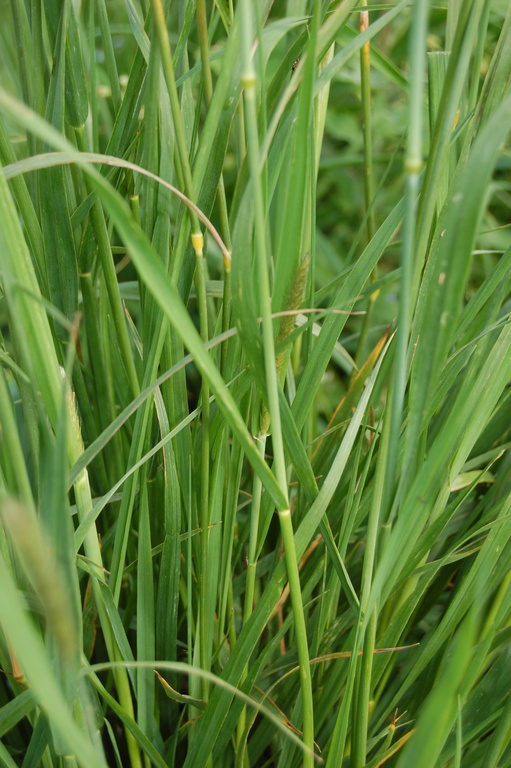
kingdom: Plantae
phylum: Tracheophyta
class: Liliopsida
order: Poales
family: Poaceae
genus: Alopecurus
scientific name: Alopecurus pratensis
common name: Meadow foxtail
